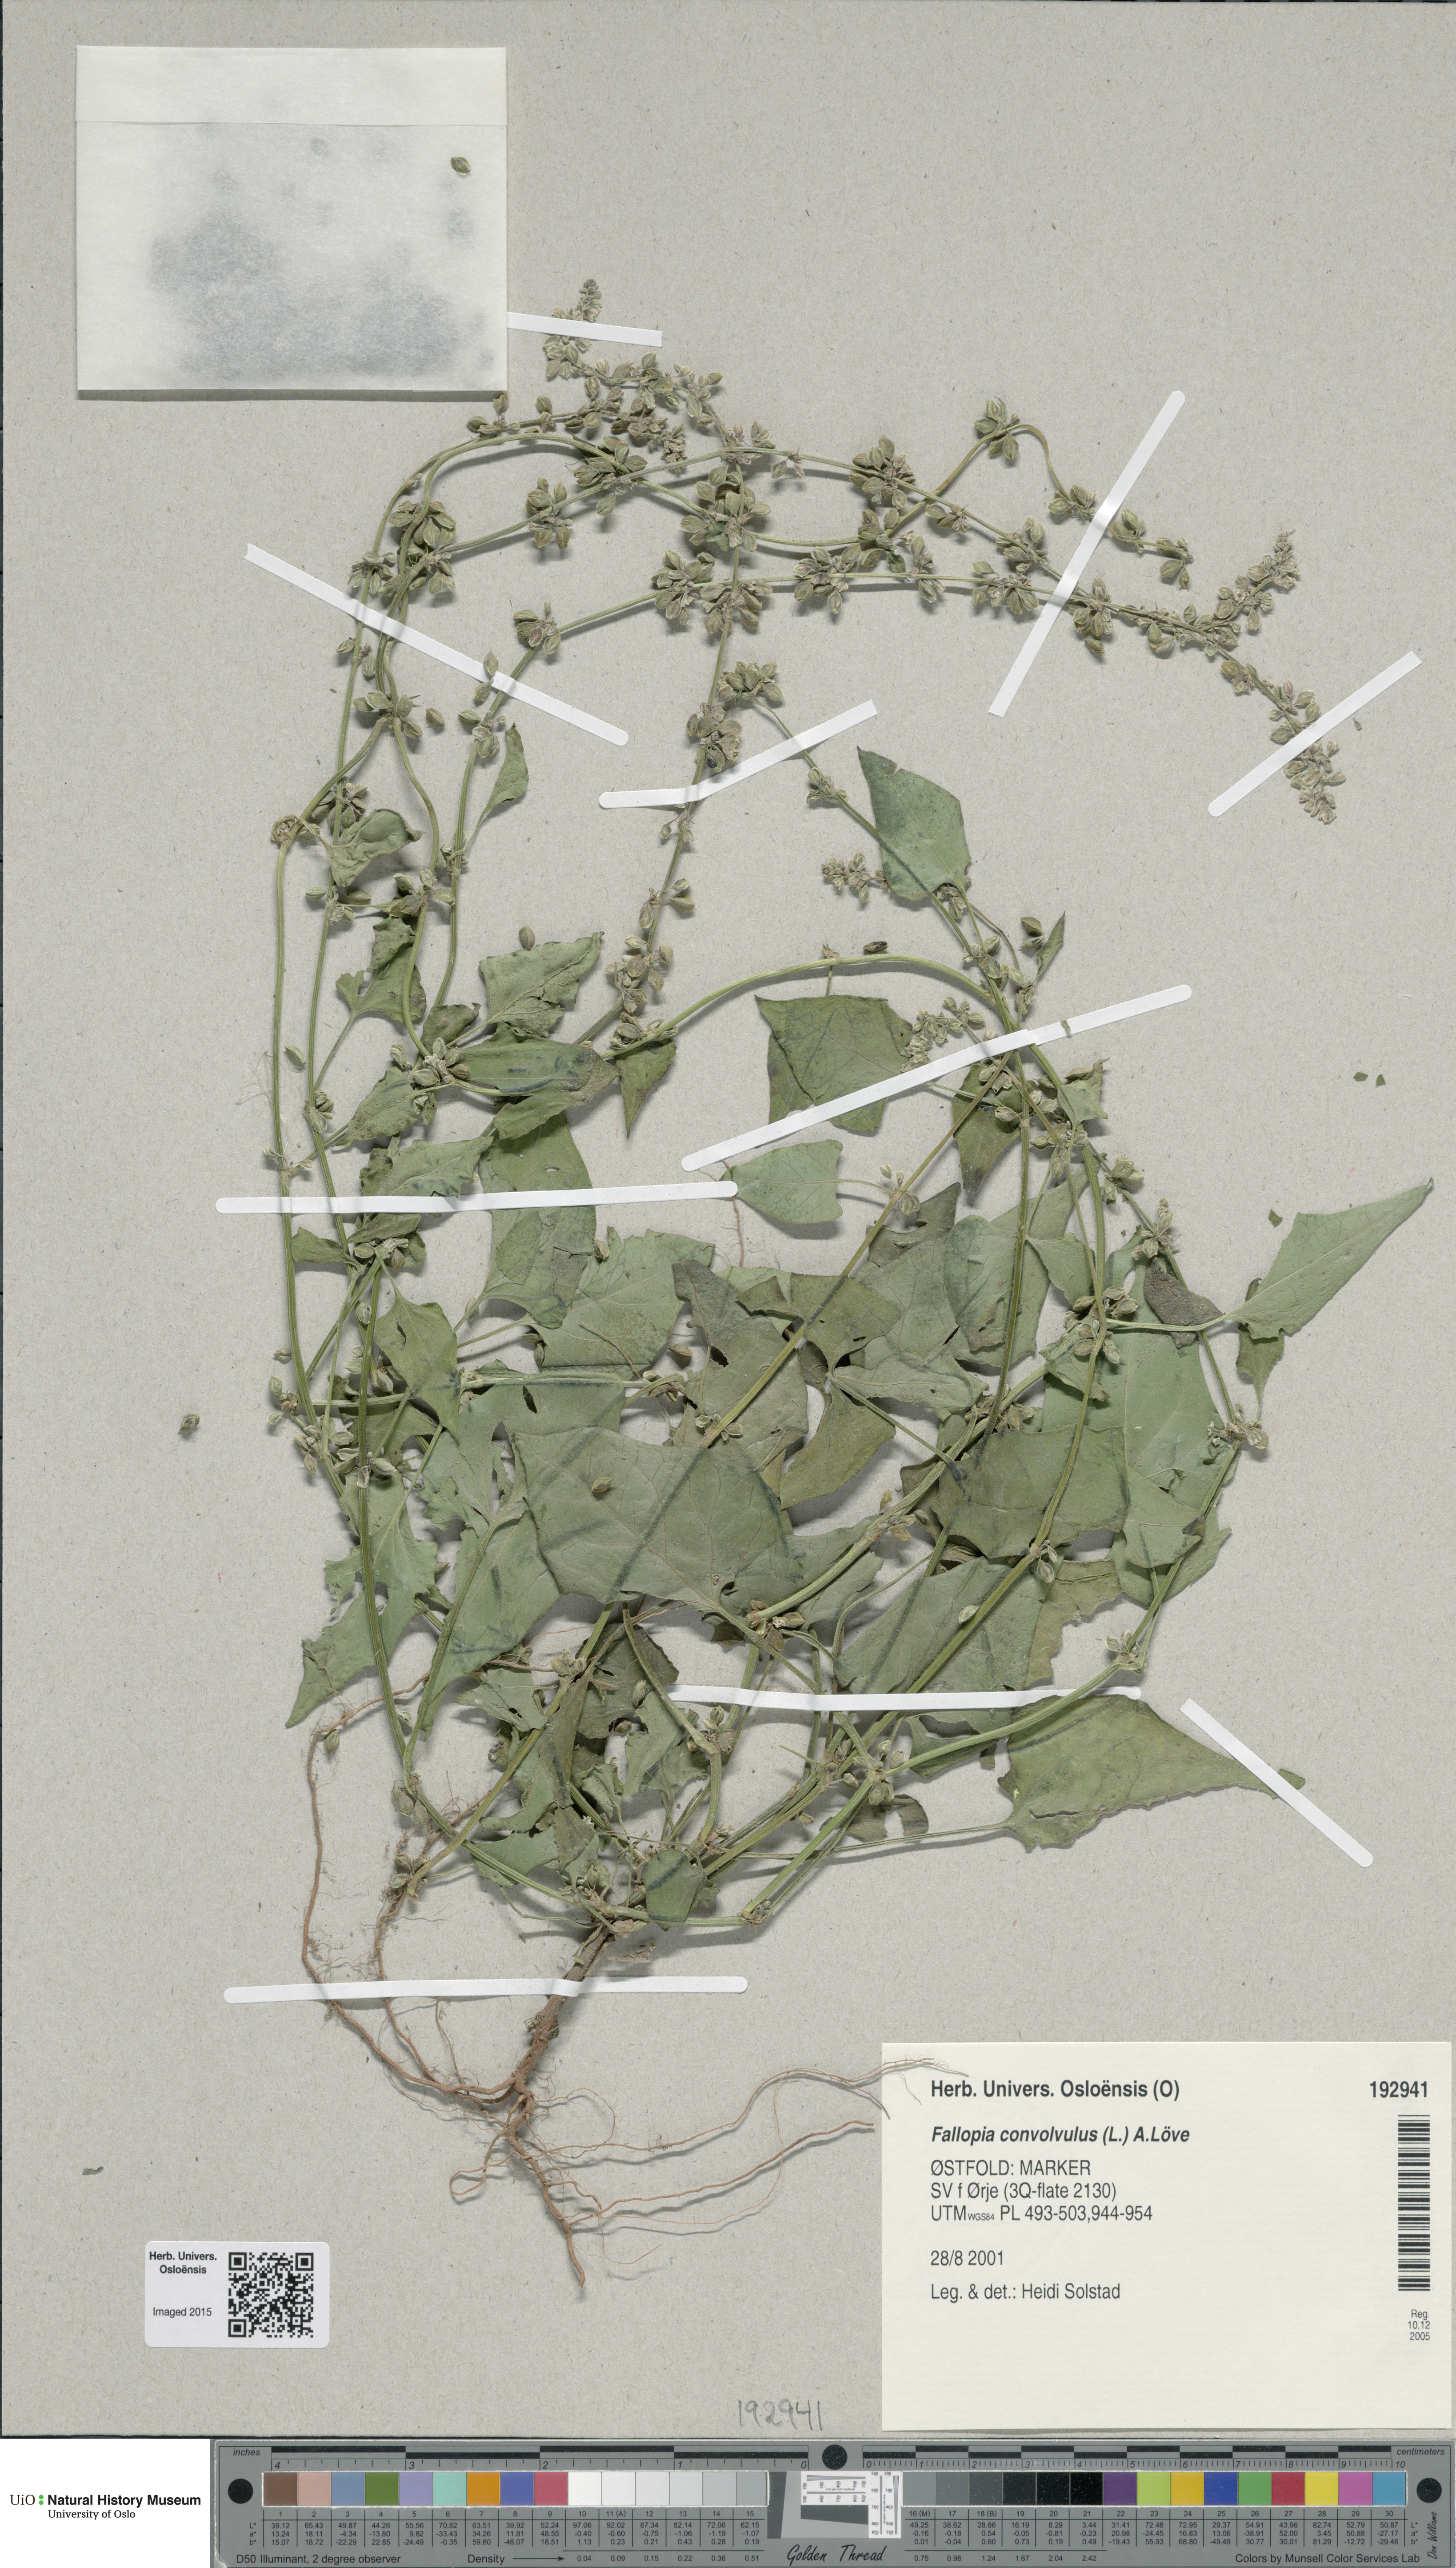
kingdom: Plantae
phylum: Tracheophyta
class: Magnoliopsida
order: Caryophyllales
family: Polygonaceae
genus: Fallopia
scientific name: Fallopia convolvulus
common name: Black bindweed
